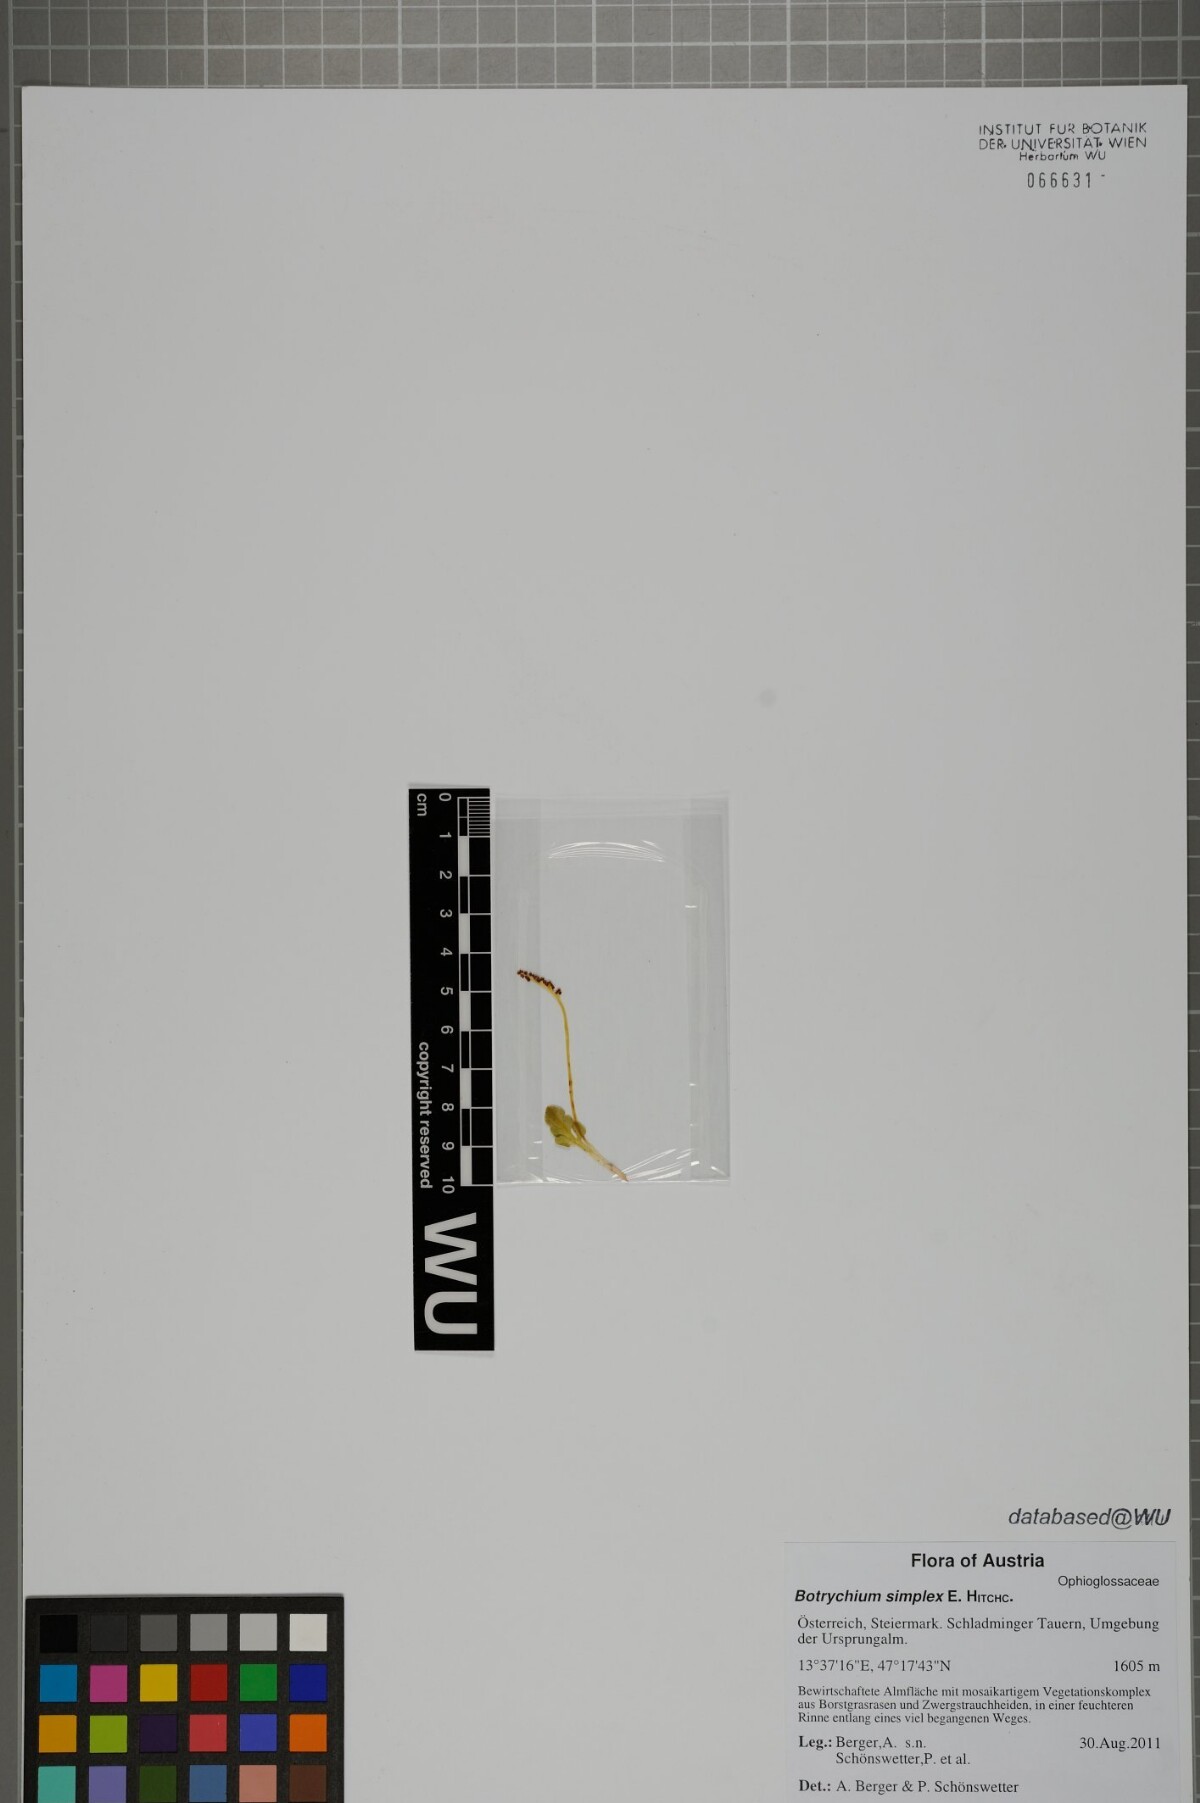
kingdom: Plantae
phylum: Tracheophyta
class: Polypodiopsida
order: Ophioglossales
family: Ophioglossaceae
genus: Botrychium
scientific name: Botrychium simplex
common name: Least moonwort
